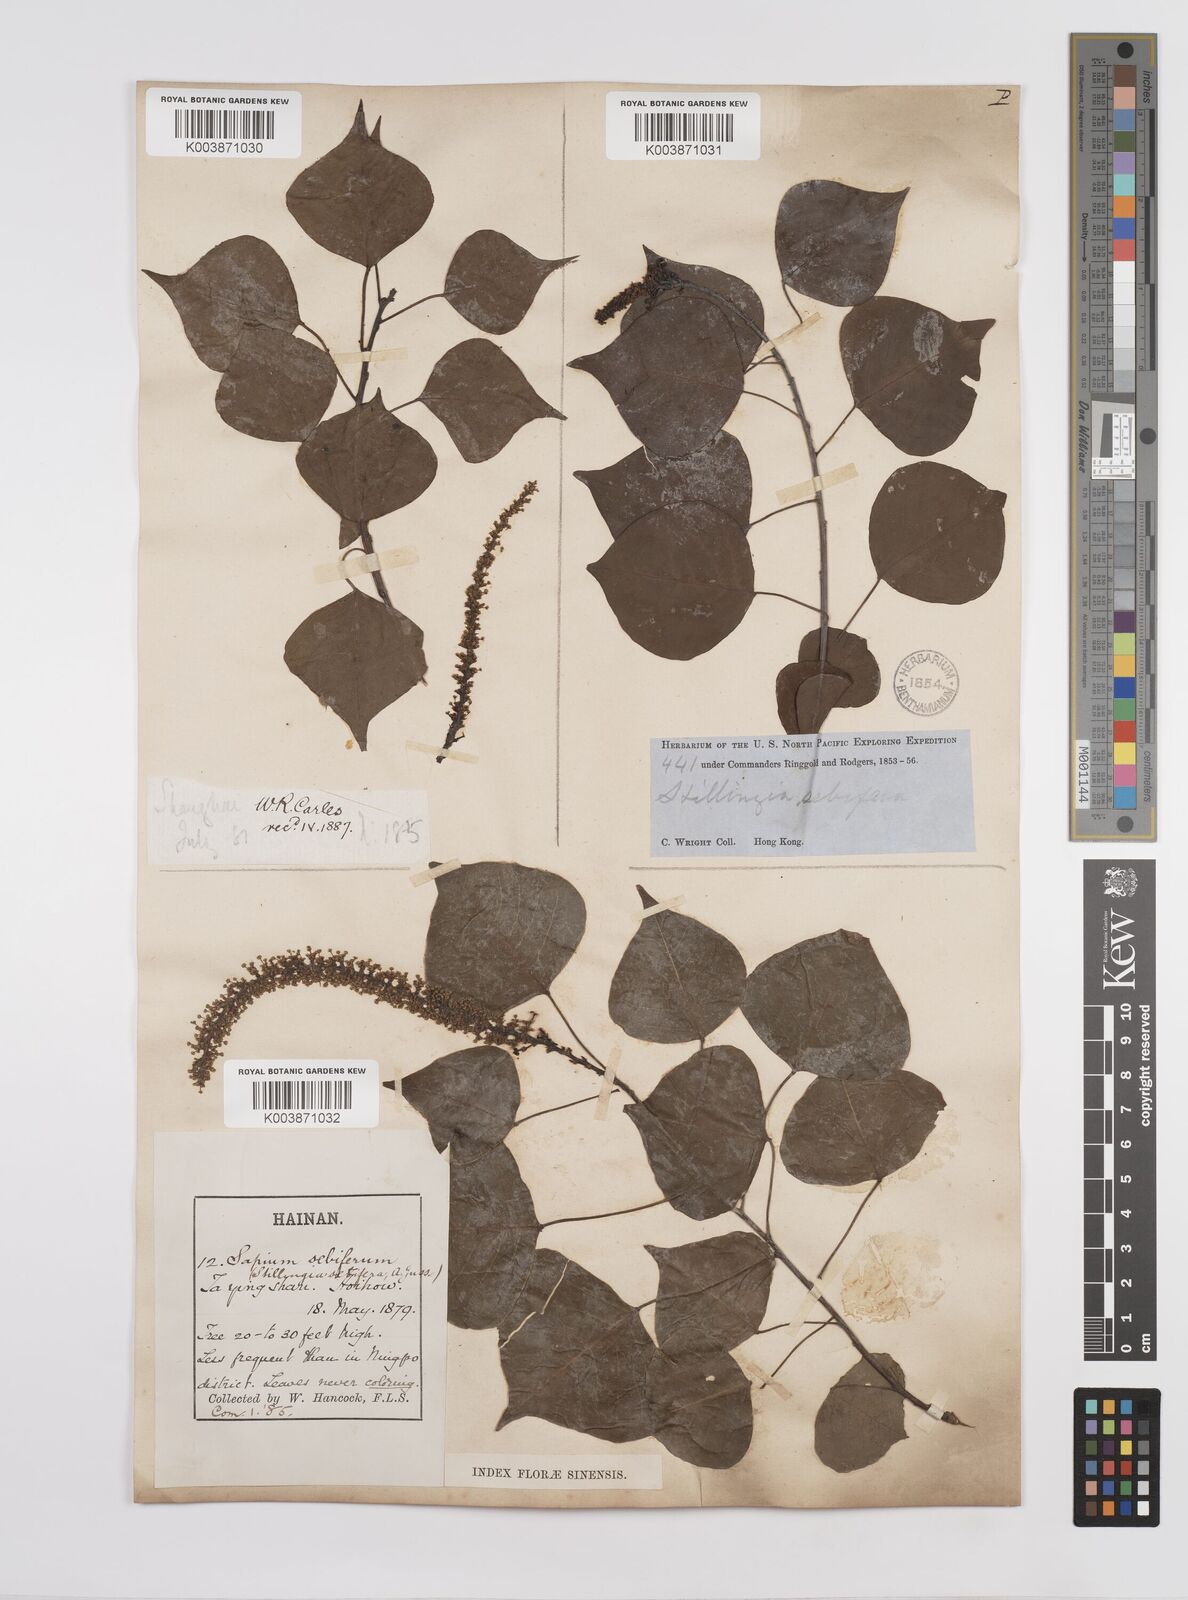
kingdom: Plantae
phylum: Tracheophyta
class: Magnoliopsida
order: Malpighiales
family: Euphorbiaceae
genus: Triadica
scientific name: Triadica sebifera
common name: Chinese tallow
